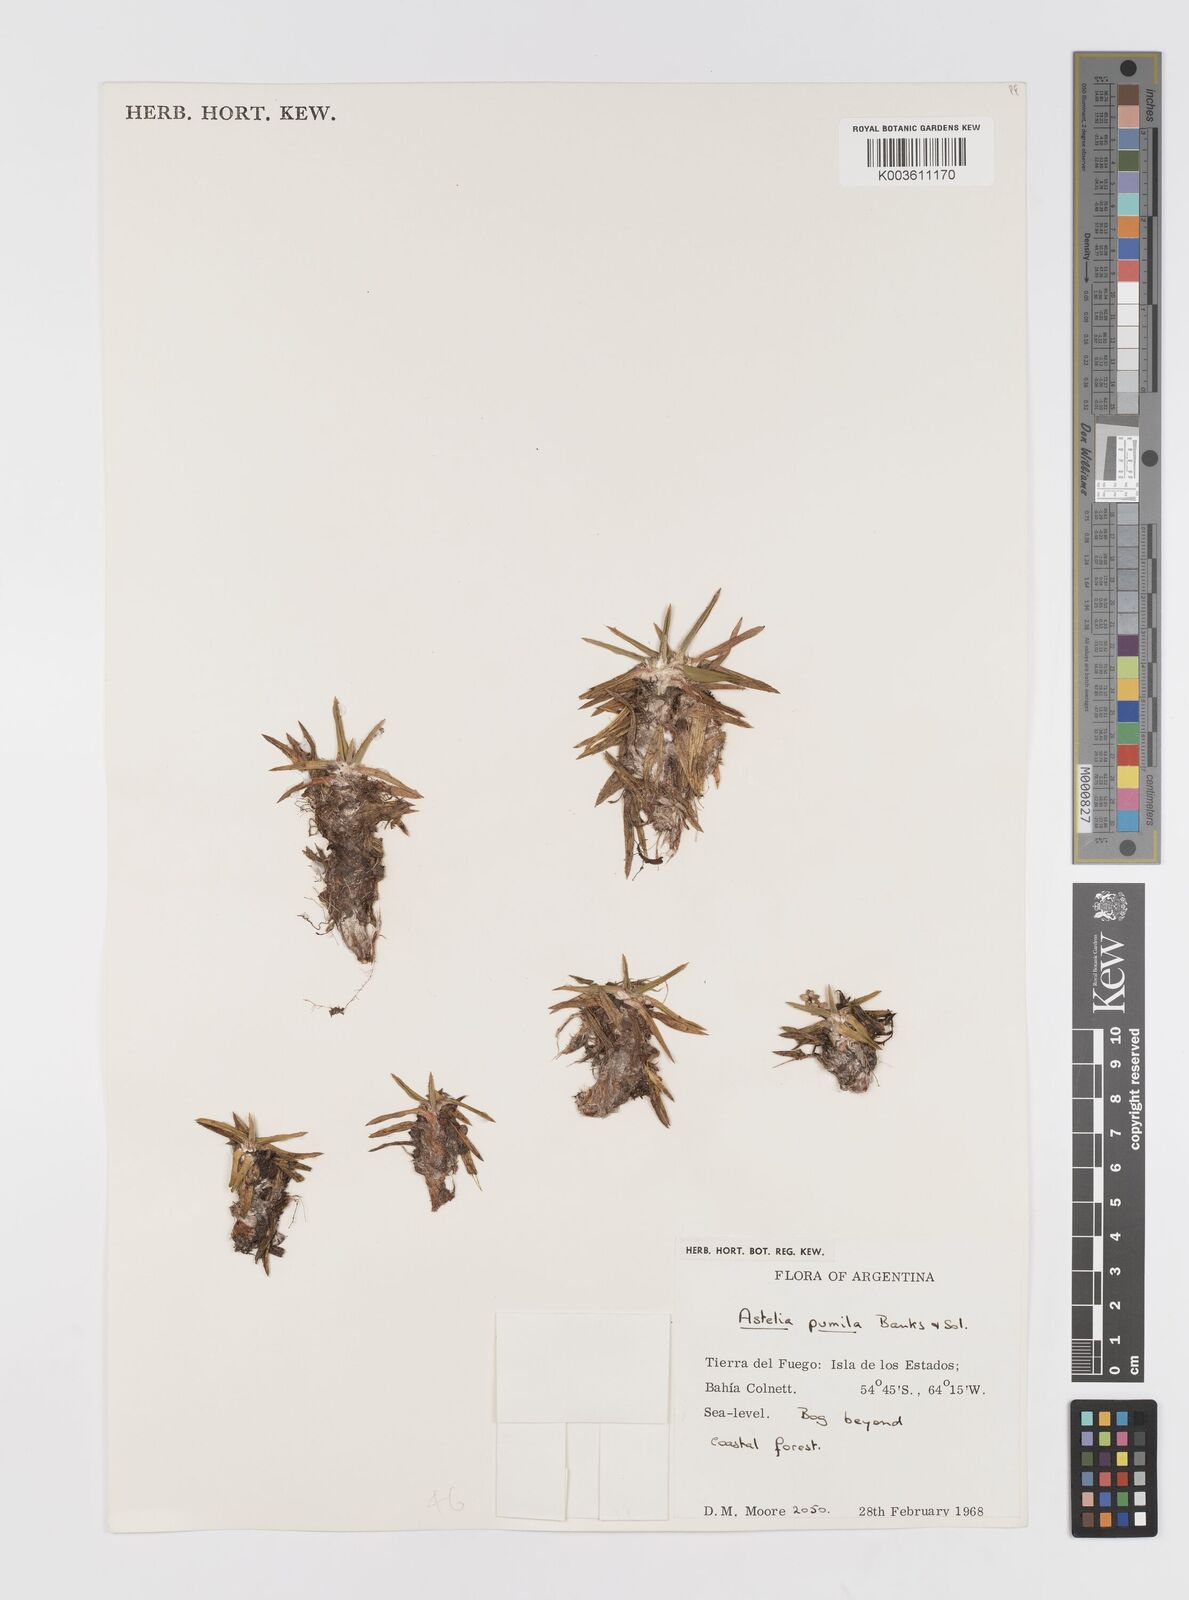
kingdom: Plantae
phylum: Tracheophyta
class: Liliopsida
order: Asparagales
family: Asteliaceae
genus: Astelia
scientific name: Astelia pumila
